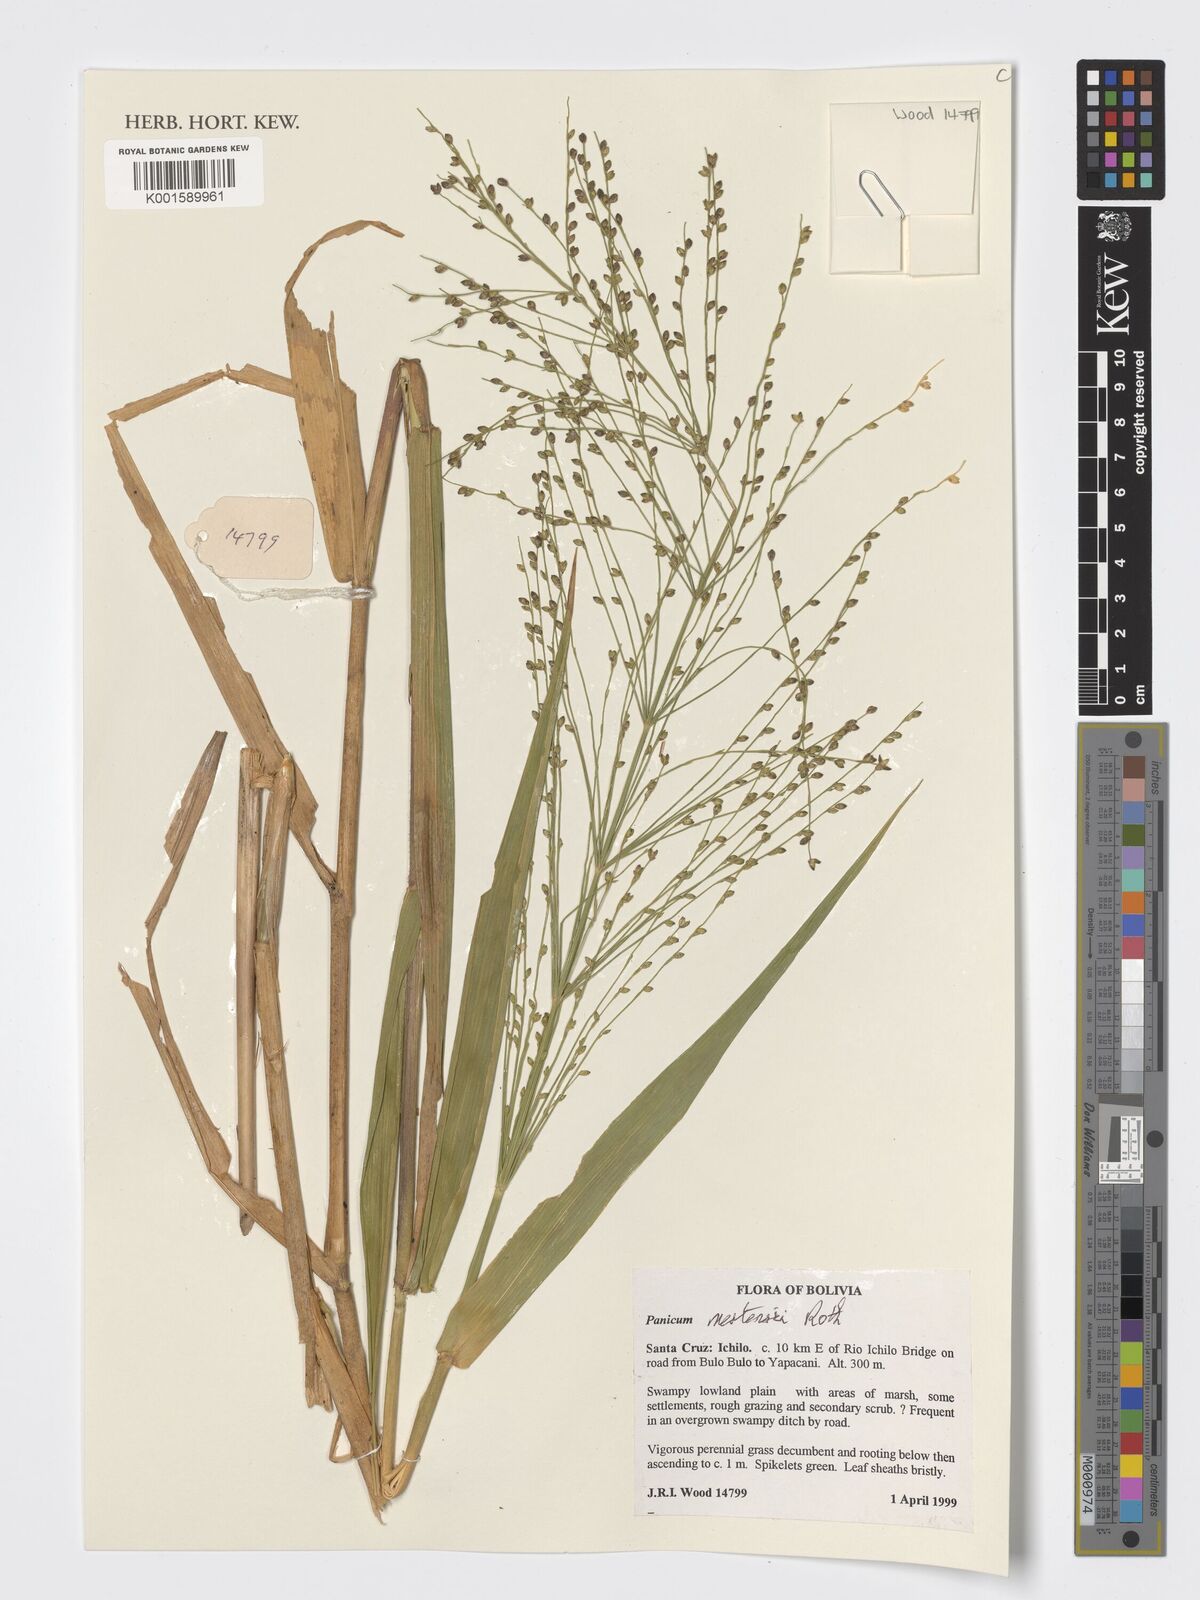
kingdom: Plantae
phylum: Tracheophyta
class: Liliopsida
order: Poales
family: Poaceae
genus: Stephostachys
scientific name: Stephostachys mertensii
